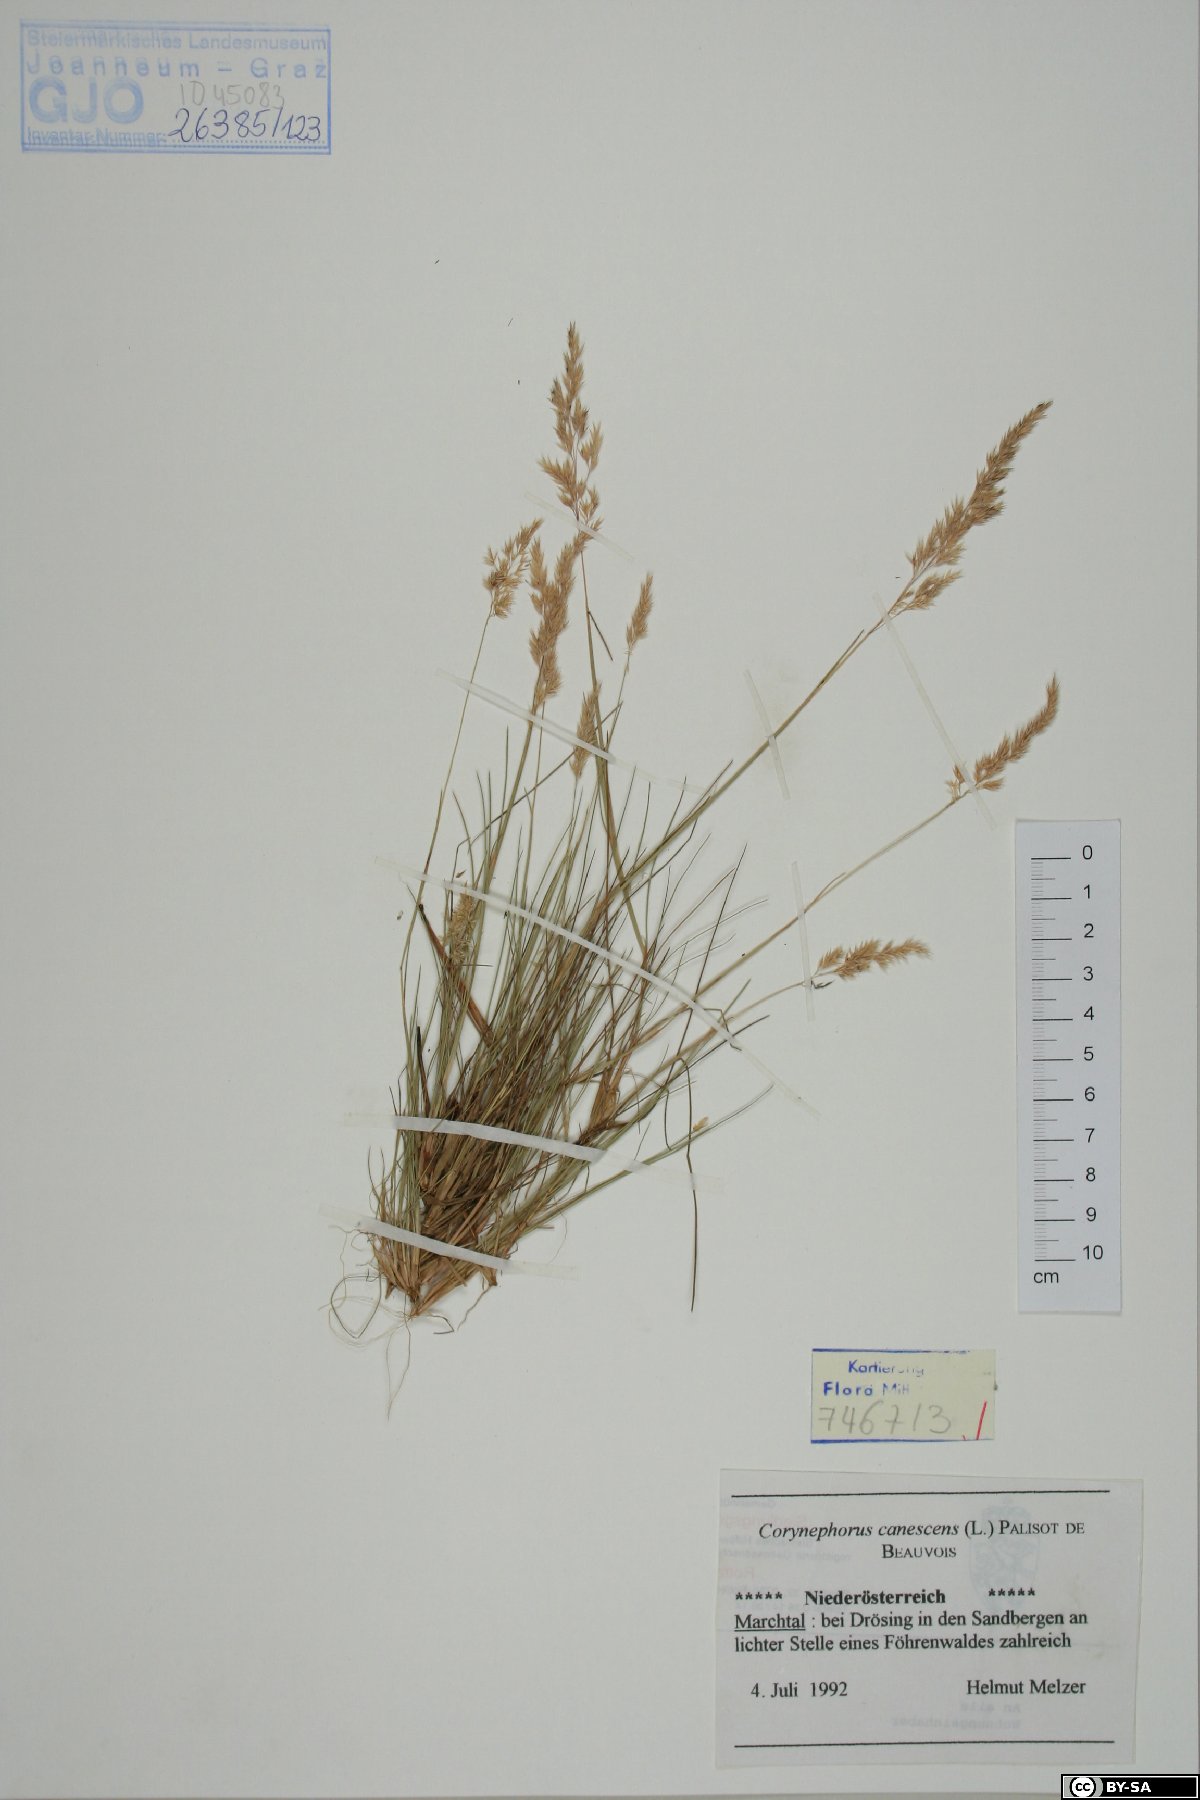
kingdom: Plantae
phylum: Tracheophyta
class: Liliopsida
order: Poales
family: Poaceae
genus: Corynephorus
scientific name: Corynephorus canescens
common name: Grey hair-grass
